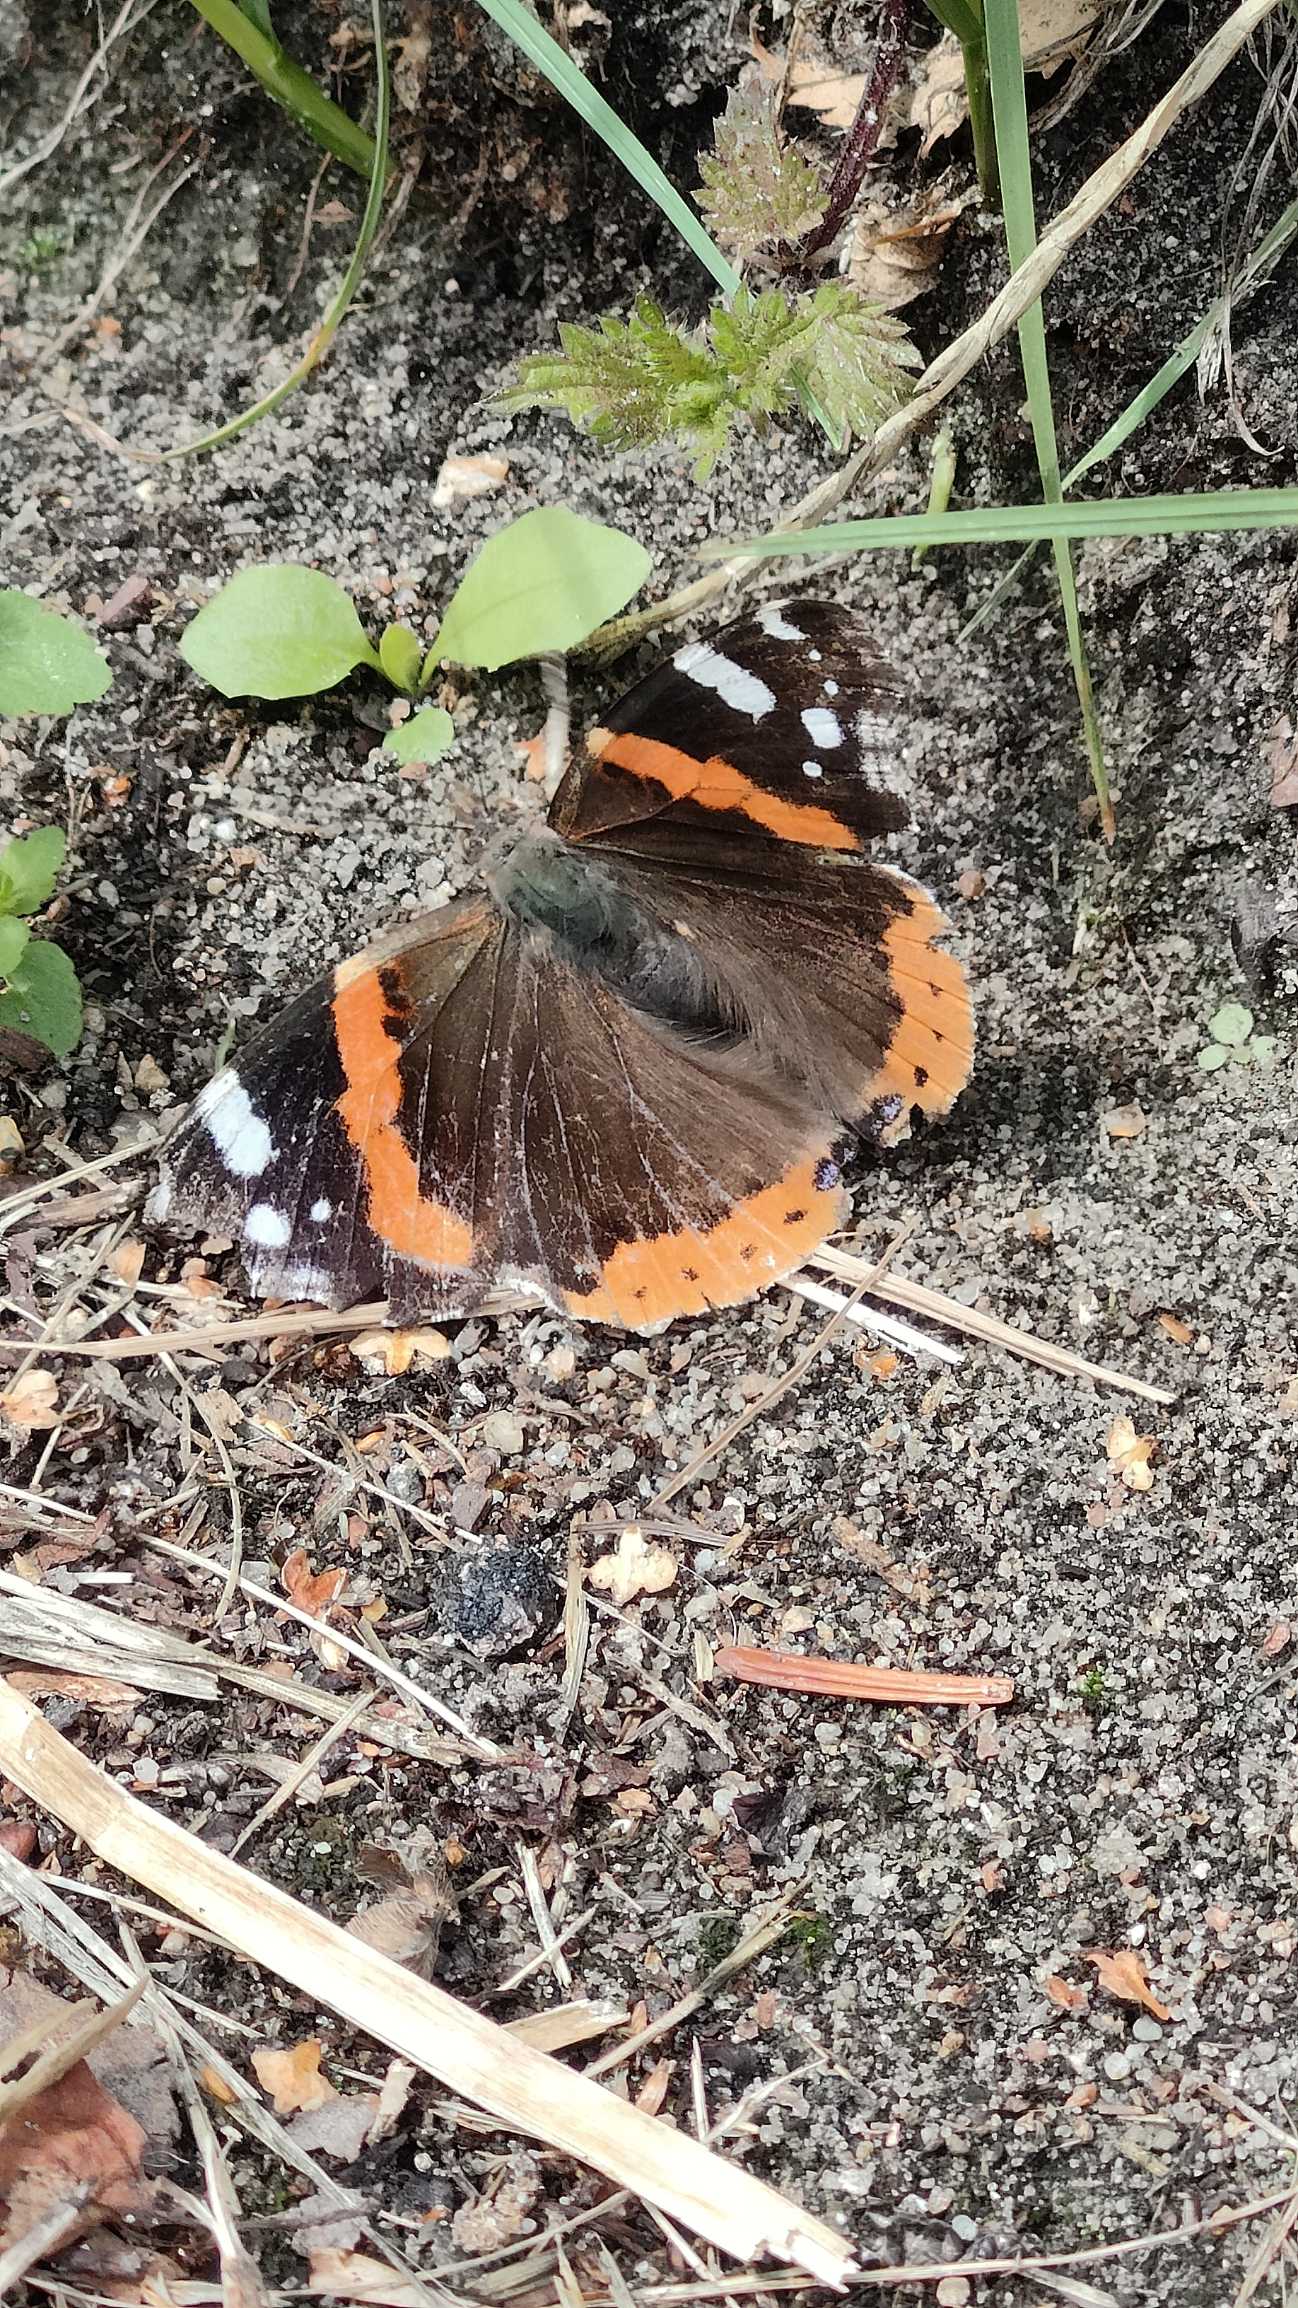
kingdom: Animalia
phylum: Arthropoda
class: Insecta
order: Lepidoptera
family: Nymphalidae
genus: Vanessa
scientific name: Vanessa atalanta
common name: Admiral
